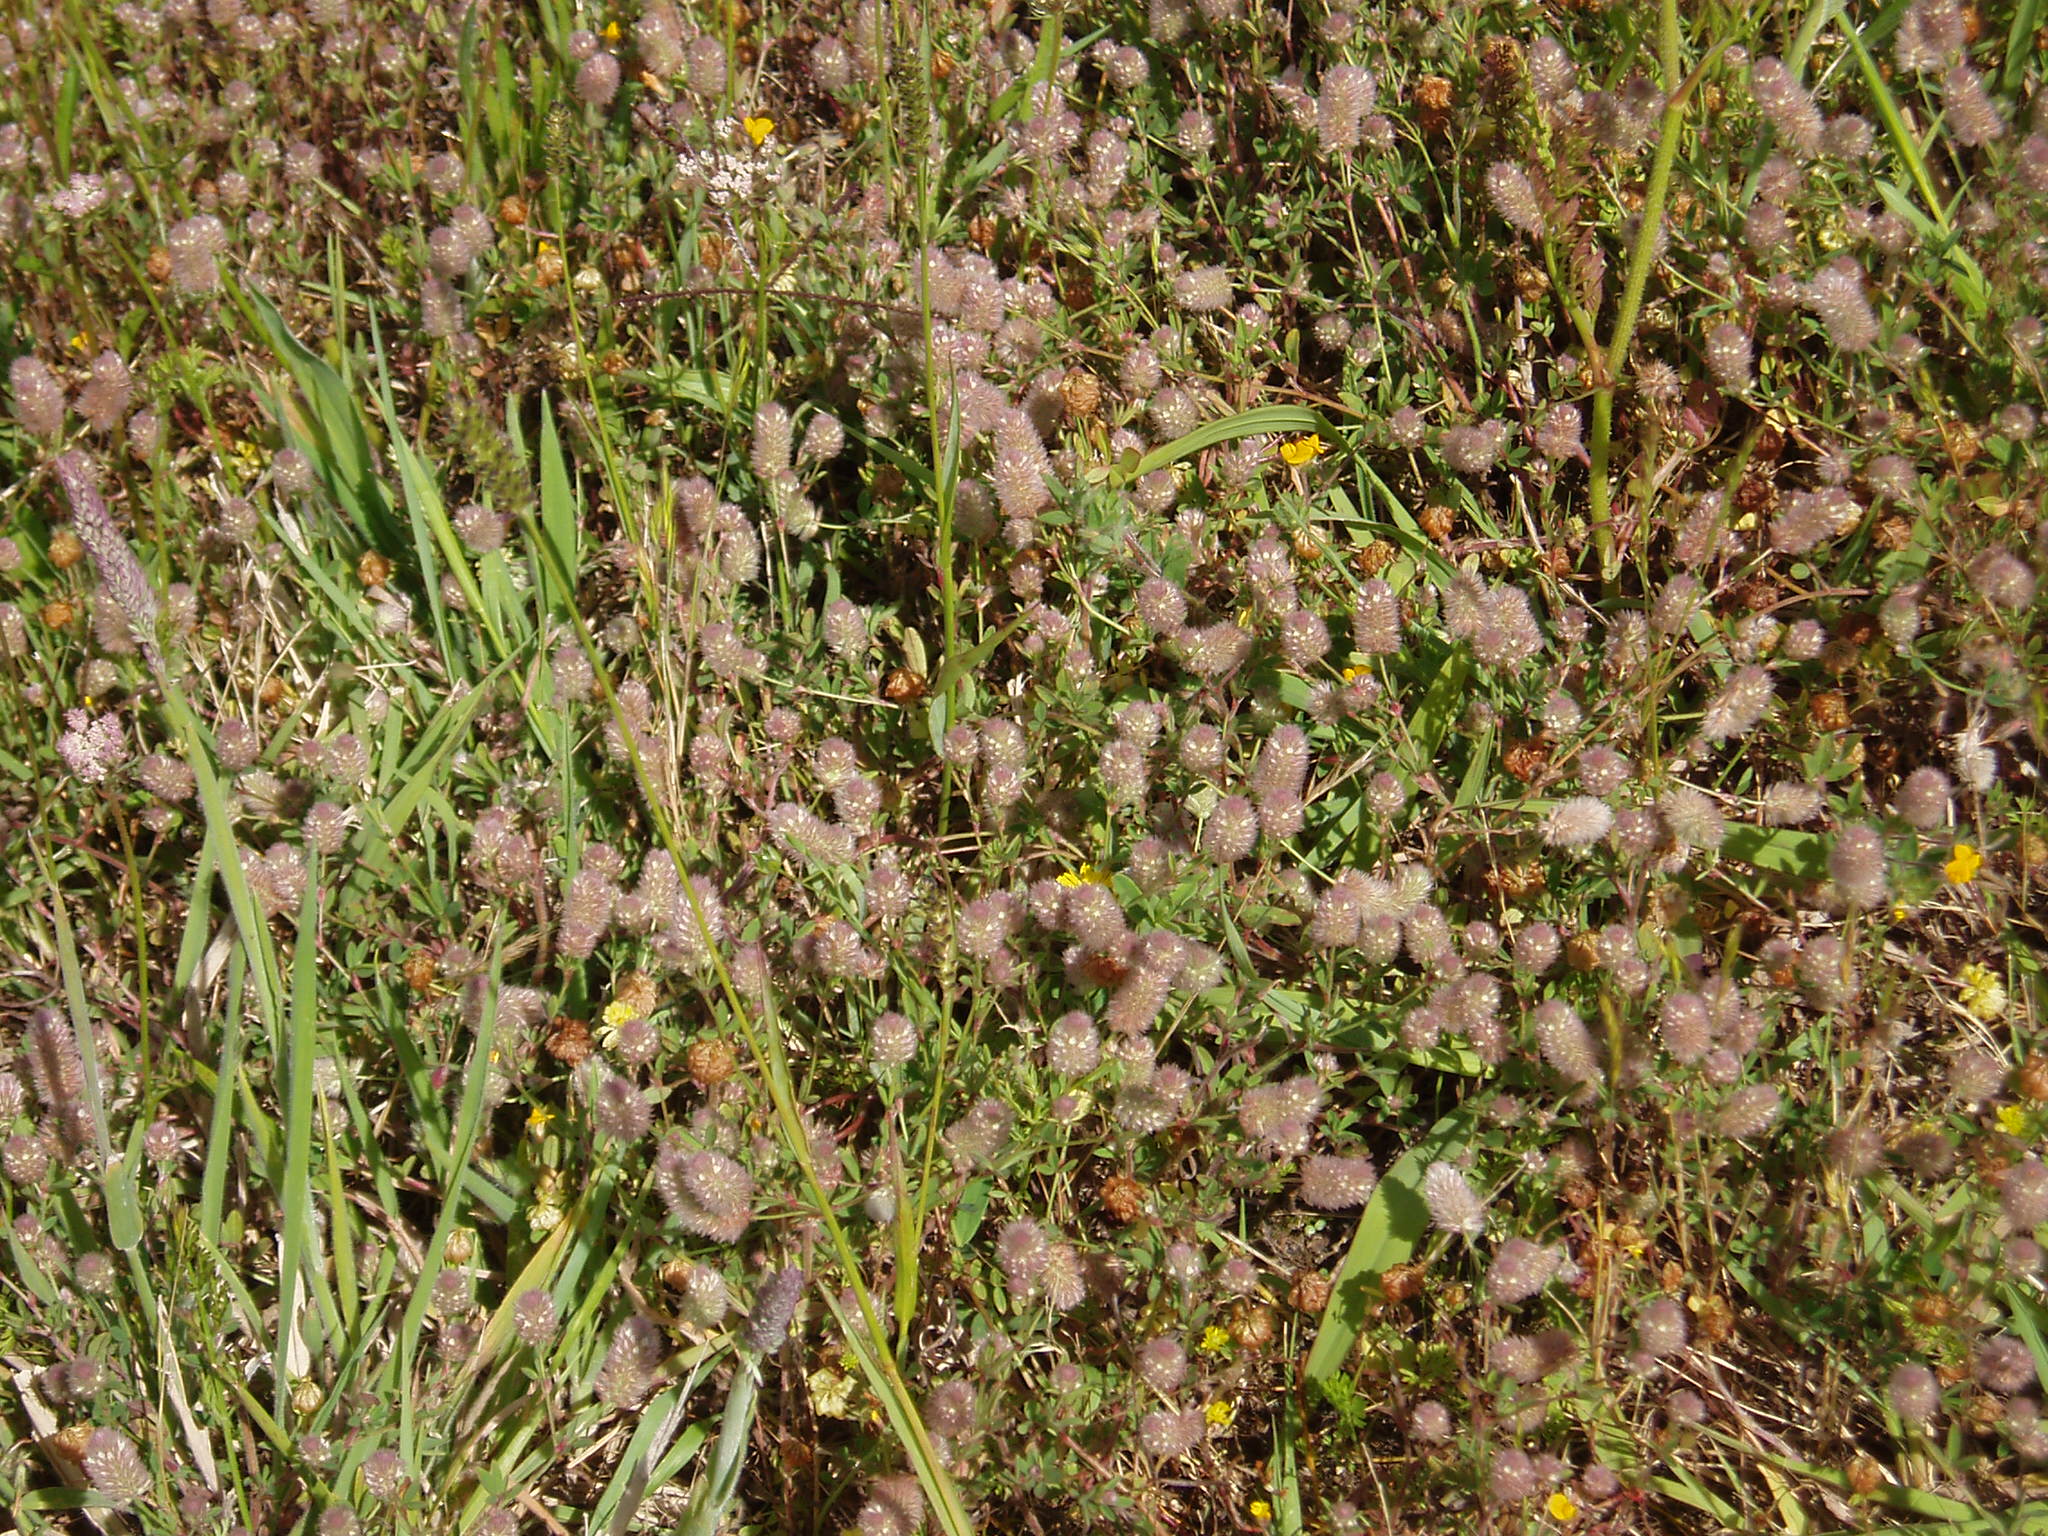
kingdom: Plantae
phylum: Tracheophyta
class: Magnoliopsida
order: Fabales
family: Fabaceae
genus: Trifolium
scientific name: Trifolium arvense
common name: Hare's-foot clover
